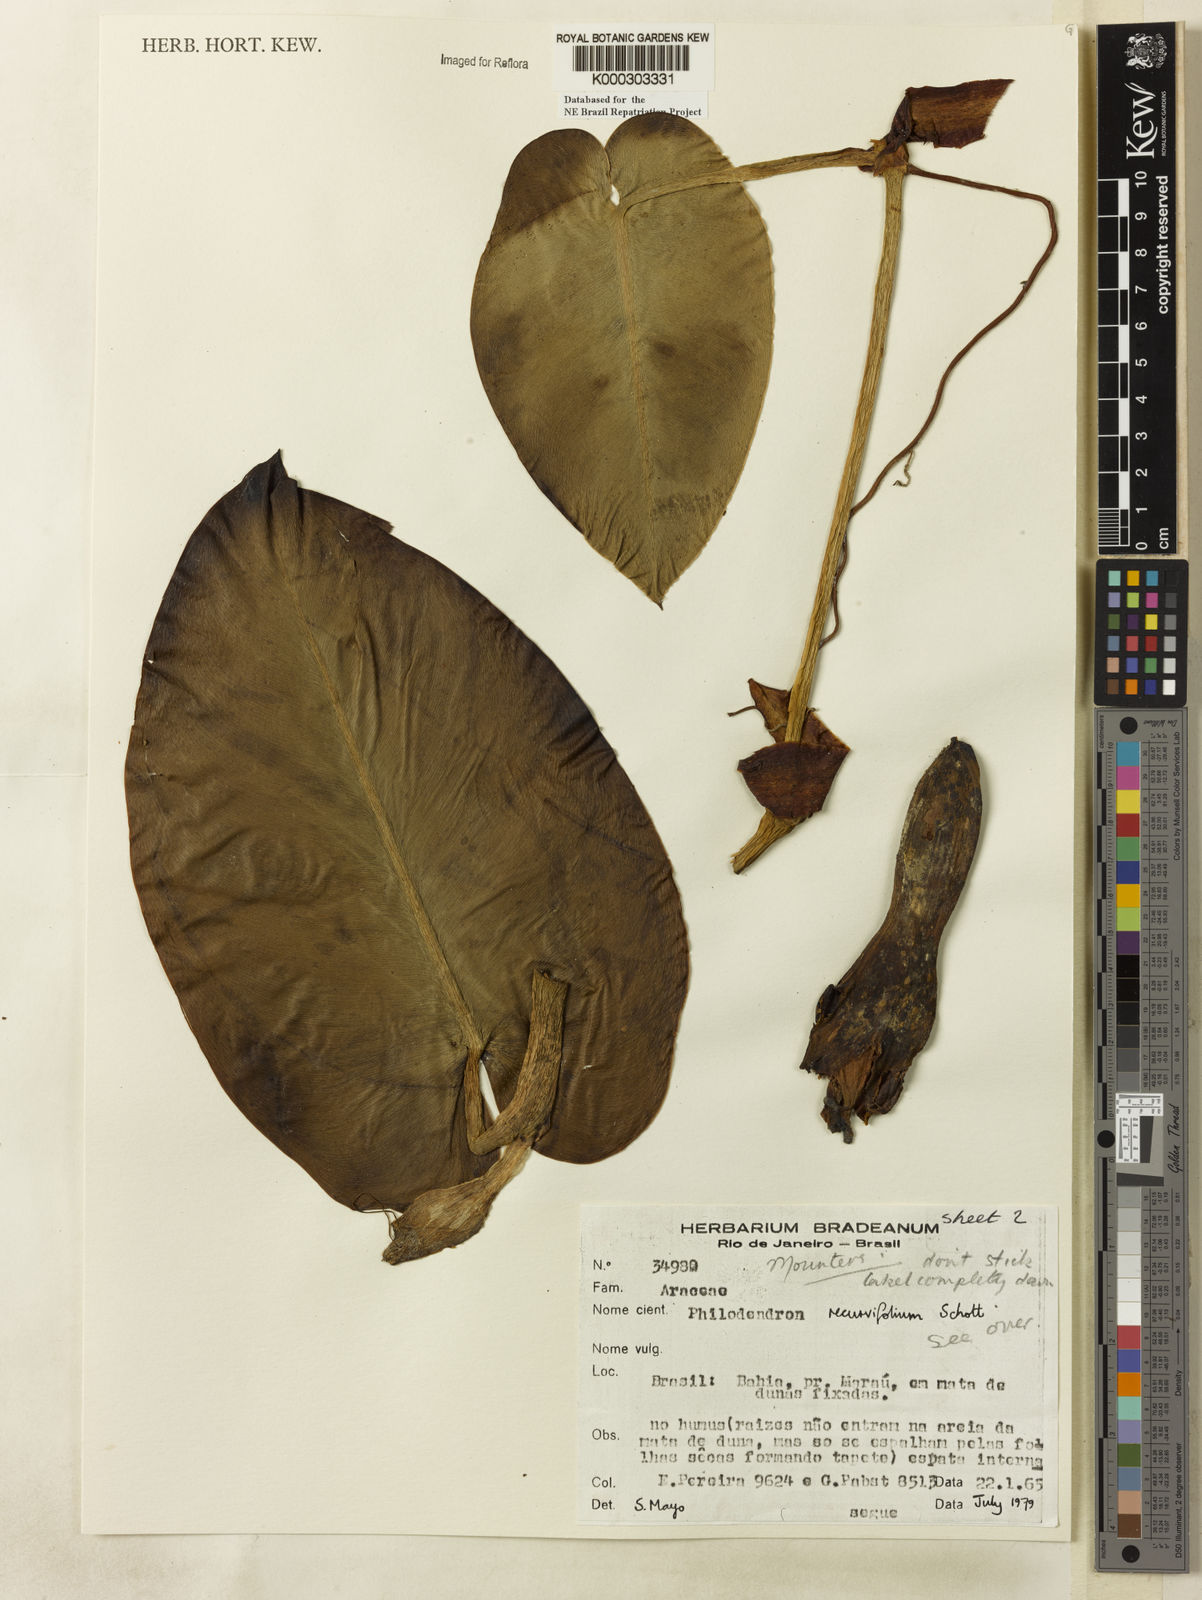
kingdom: Plantae
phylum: Tracheophyta
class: Liliopsida
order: Alismatales
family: Araceae
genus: Philodendron
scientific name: Philodendron recurvifolium
